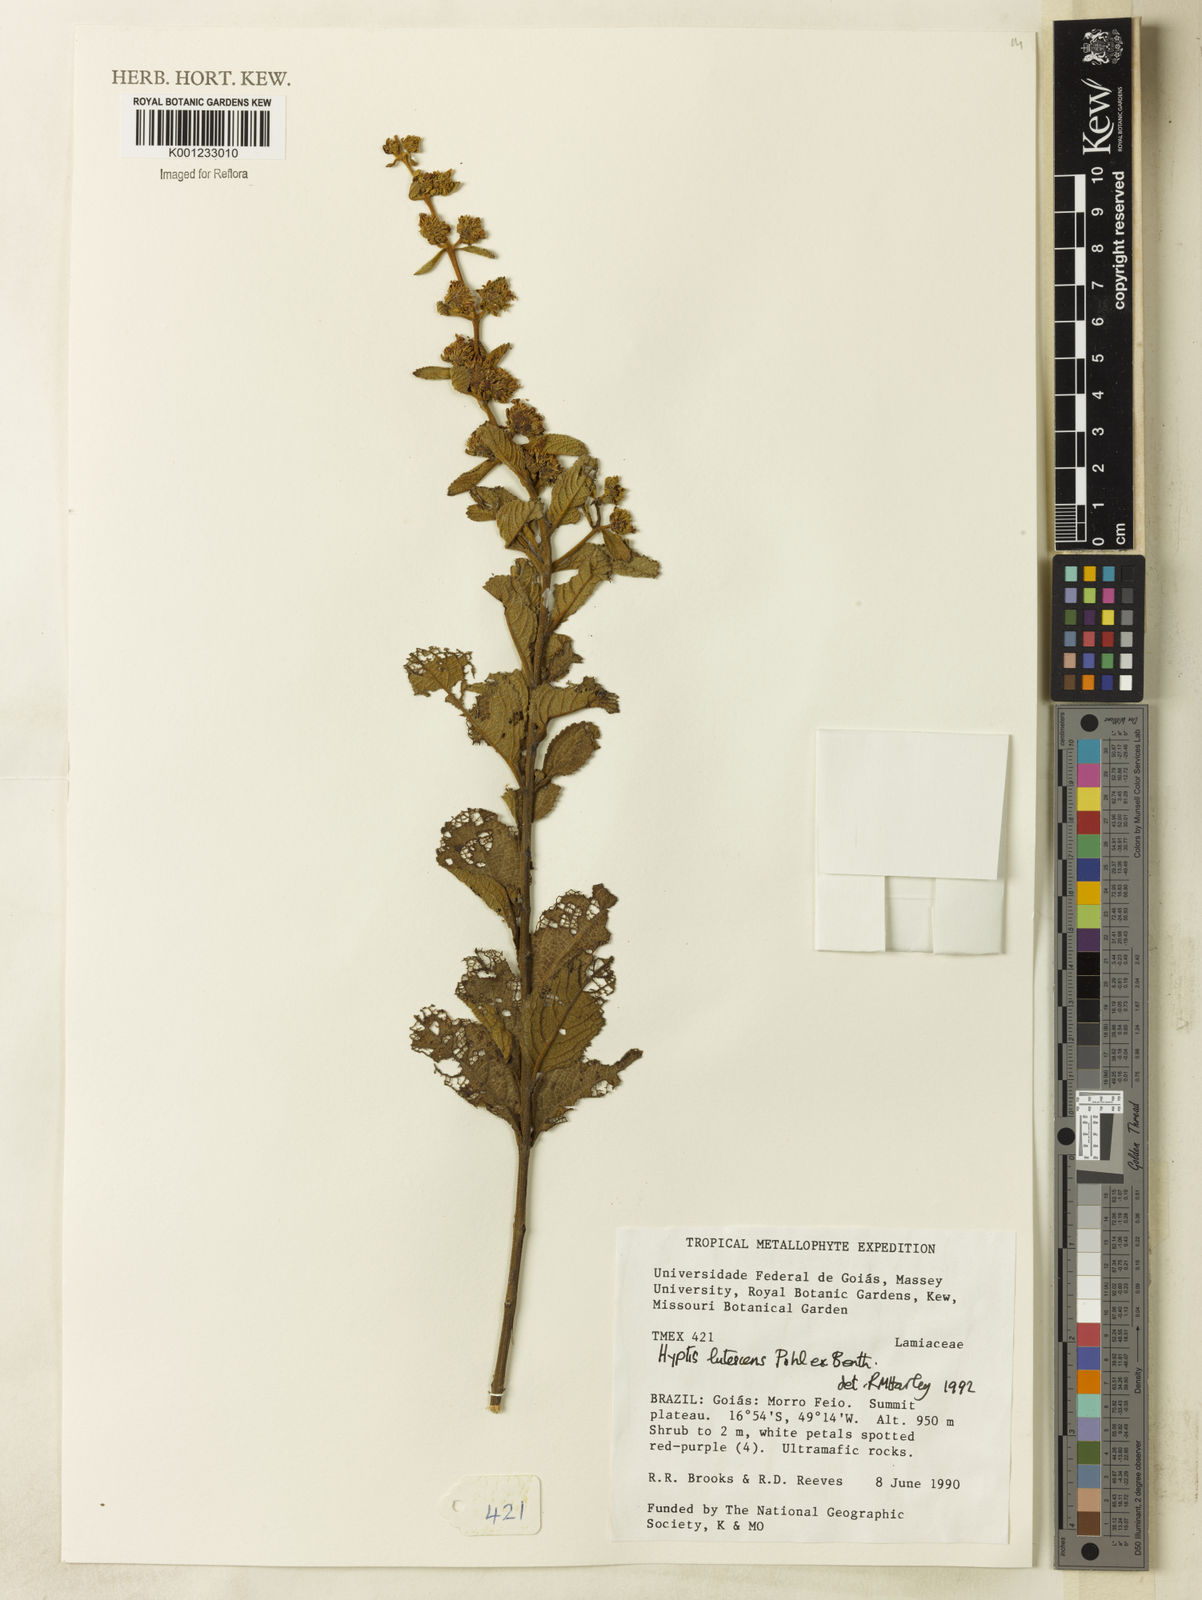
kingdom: Plantae
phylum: Tracheophyta
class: Magnoliopsida
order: Lamiales
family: Lamiaceae
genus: Hyptis
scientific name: Hyptis lutescens
